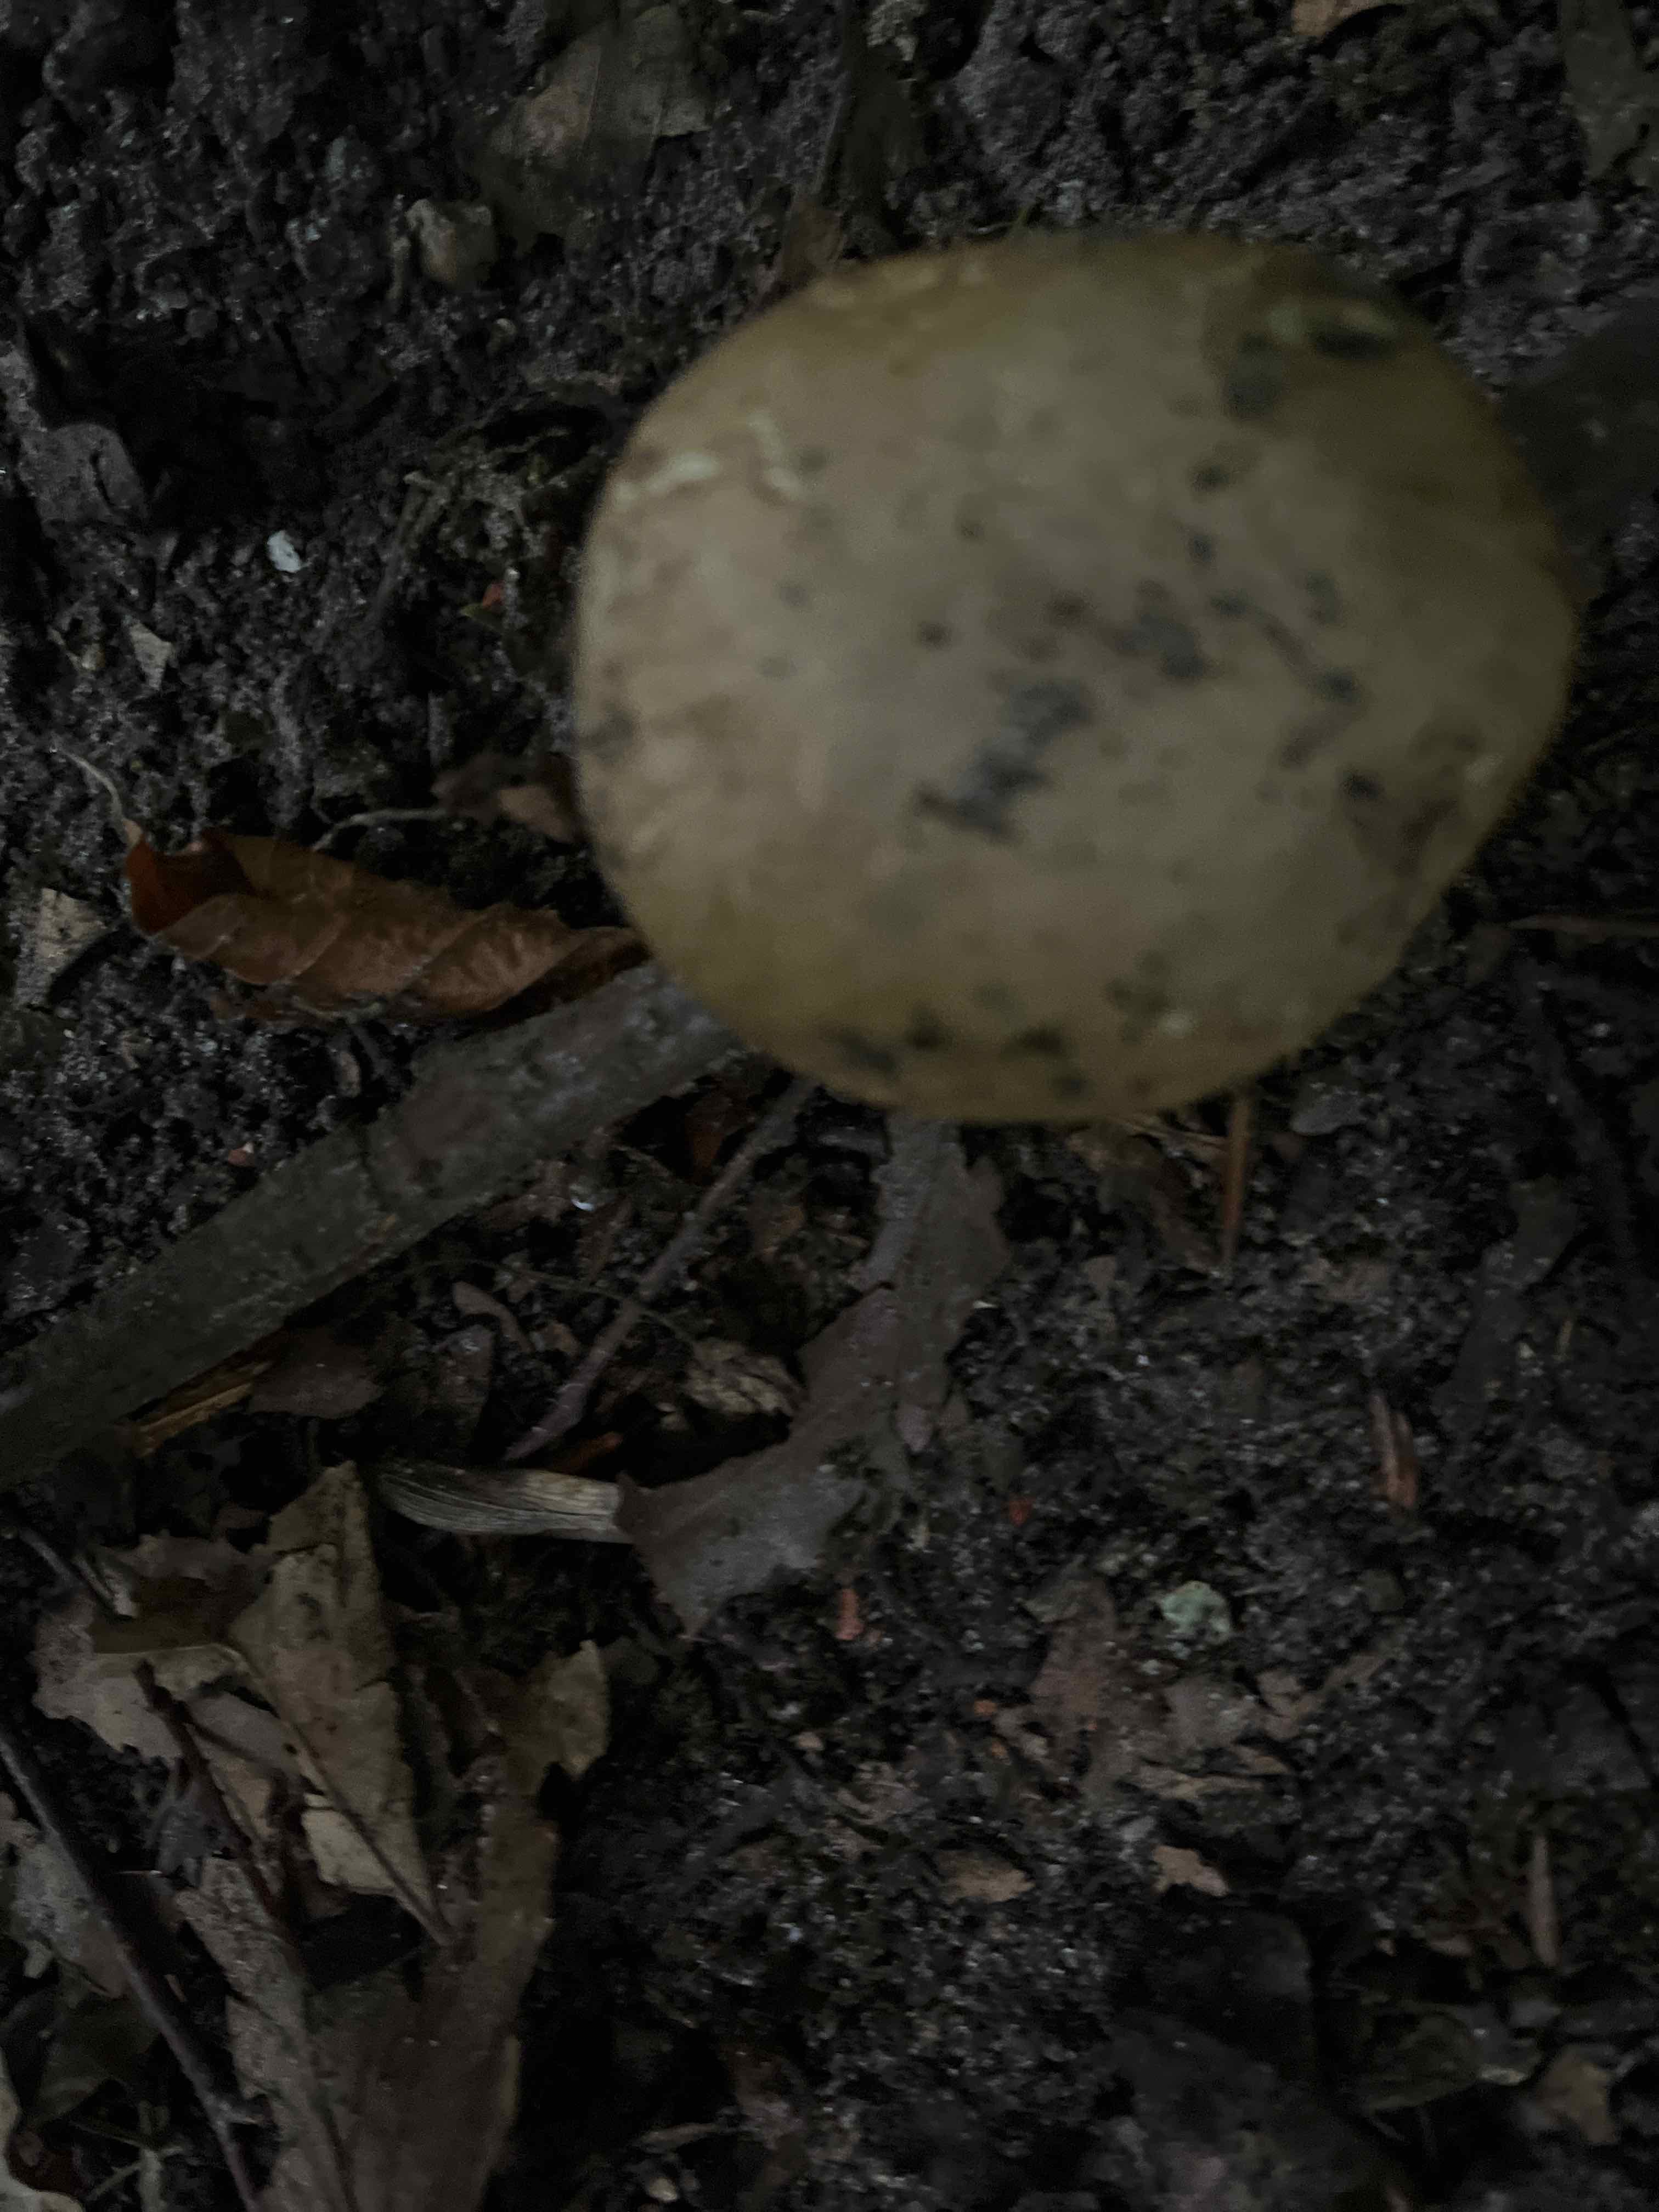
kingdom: Fungi
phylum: Basidiomycota
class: Agaricomycetes
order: Boletales
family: Boletaceae
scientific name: Boletaceae
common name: rørhatfamilien
